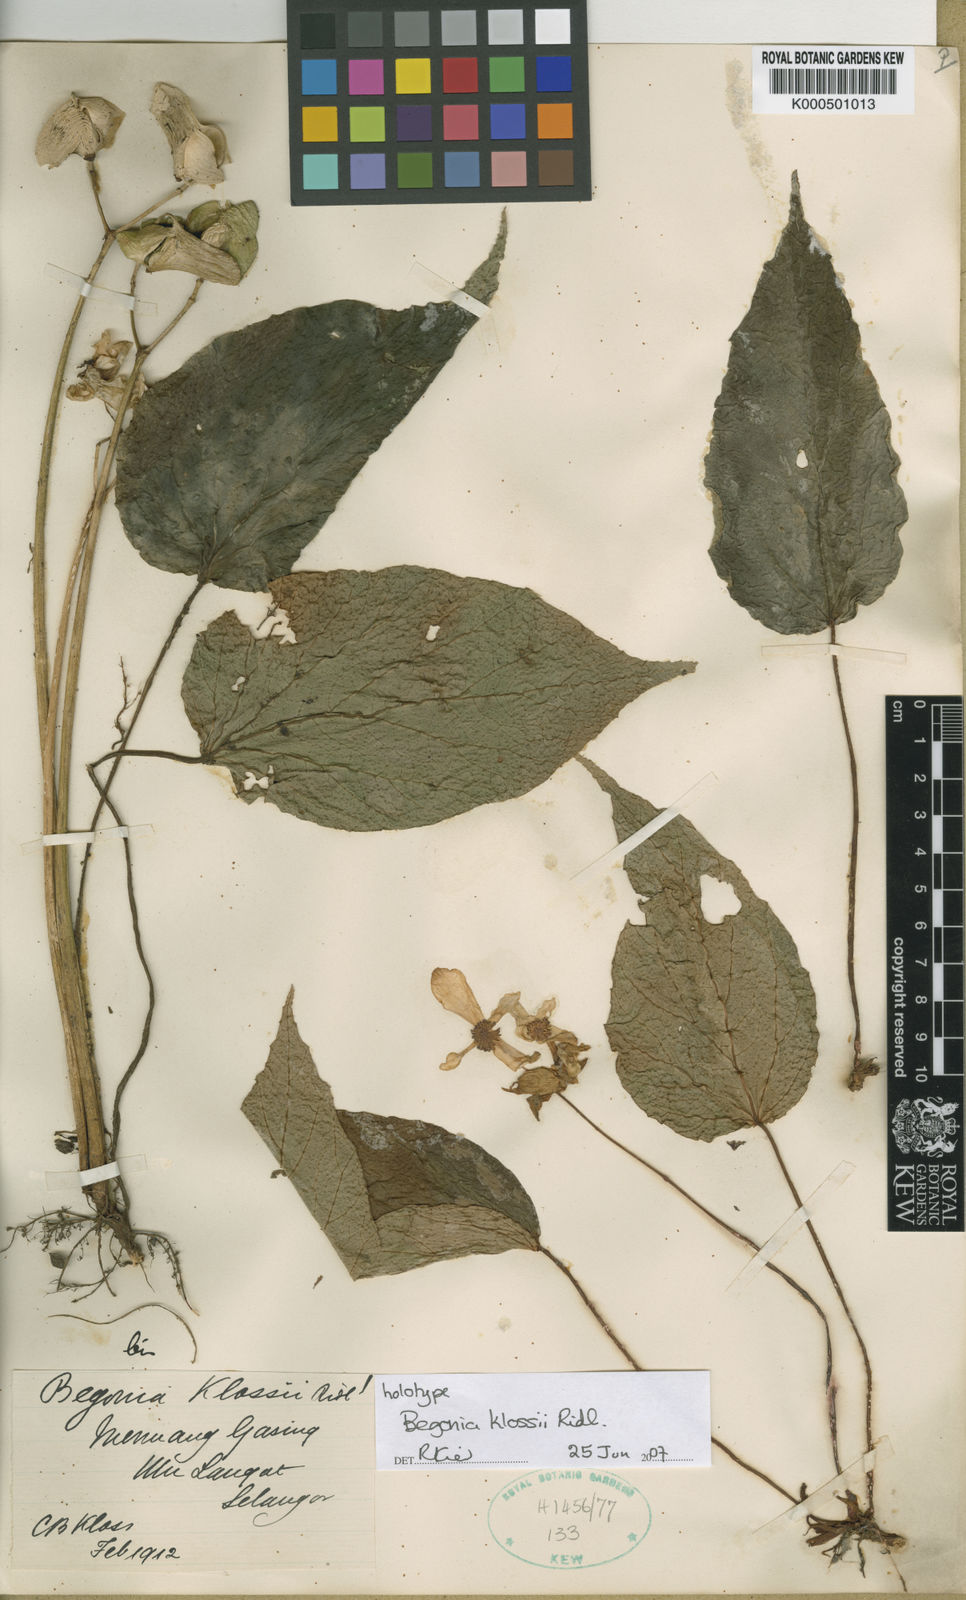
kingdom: Plantae
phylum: Tracheophyta
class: Magnoliopsida
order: Cucurbitales
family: Begoniaceae
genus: Begonia
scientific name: Begonia klossii
